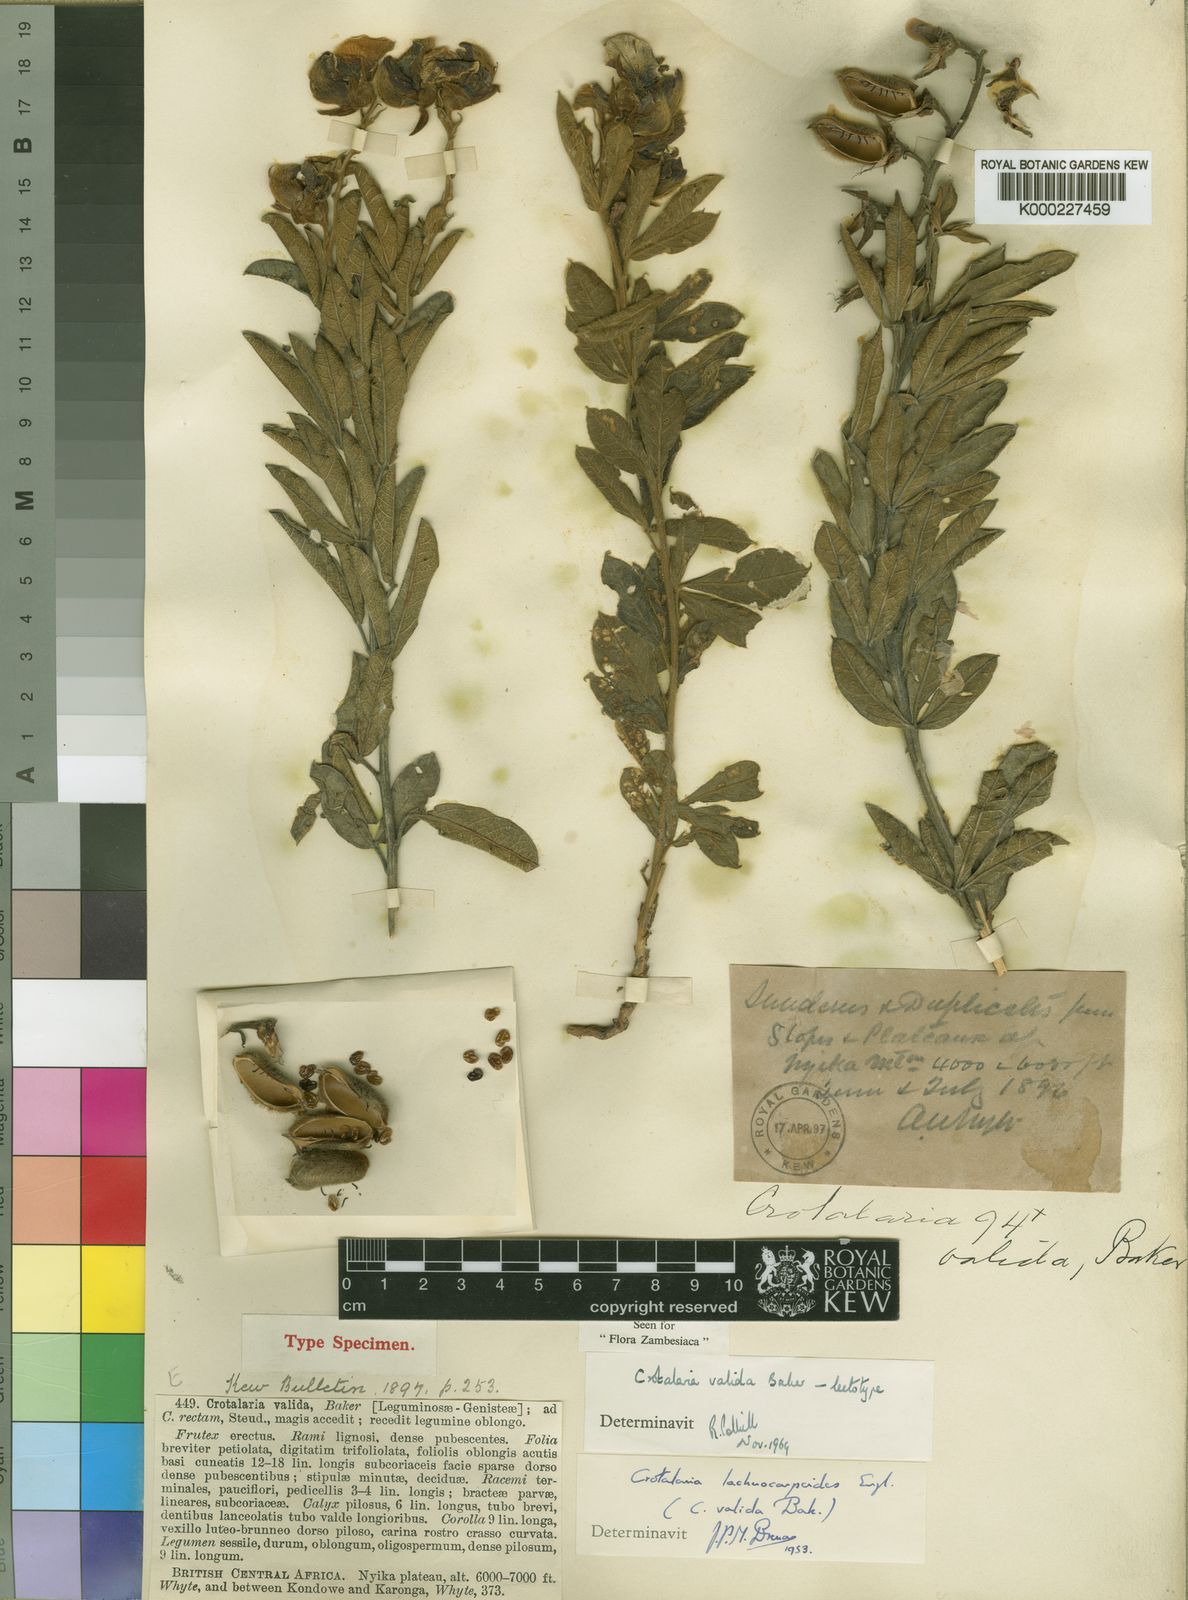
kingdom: Plantae
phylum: Tracheophyta
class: Magnoliopsida
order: Fabales
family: Fabaceae
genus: Crotalaria
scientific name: Crotalaria valida
